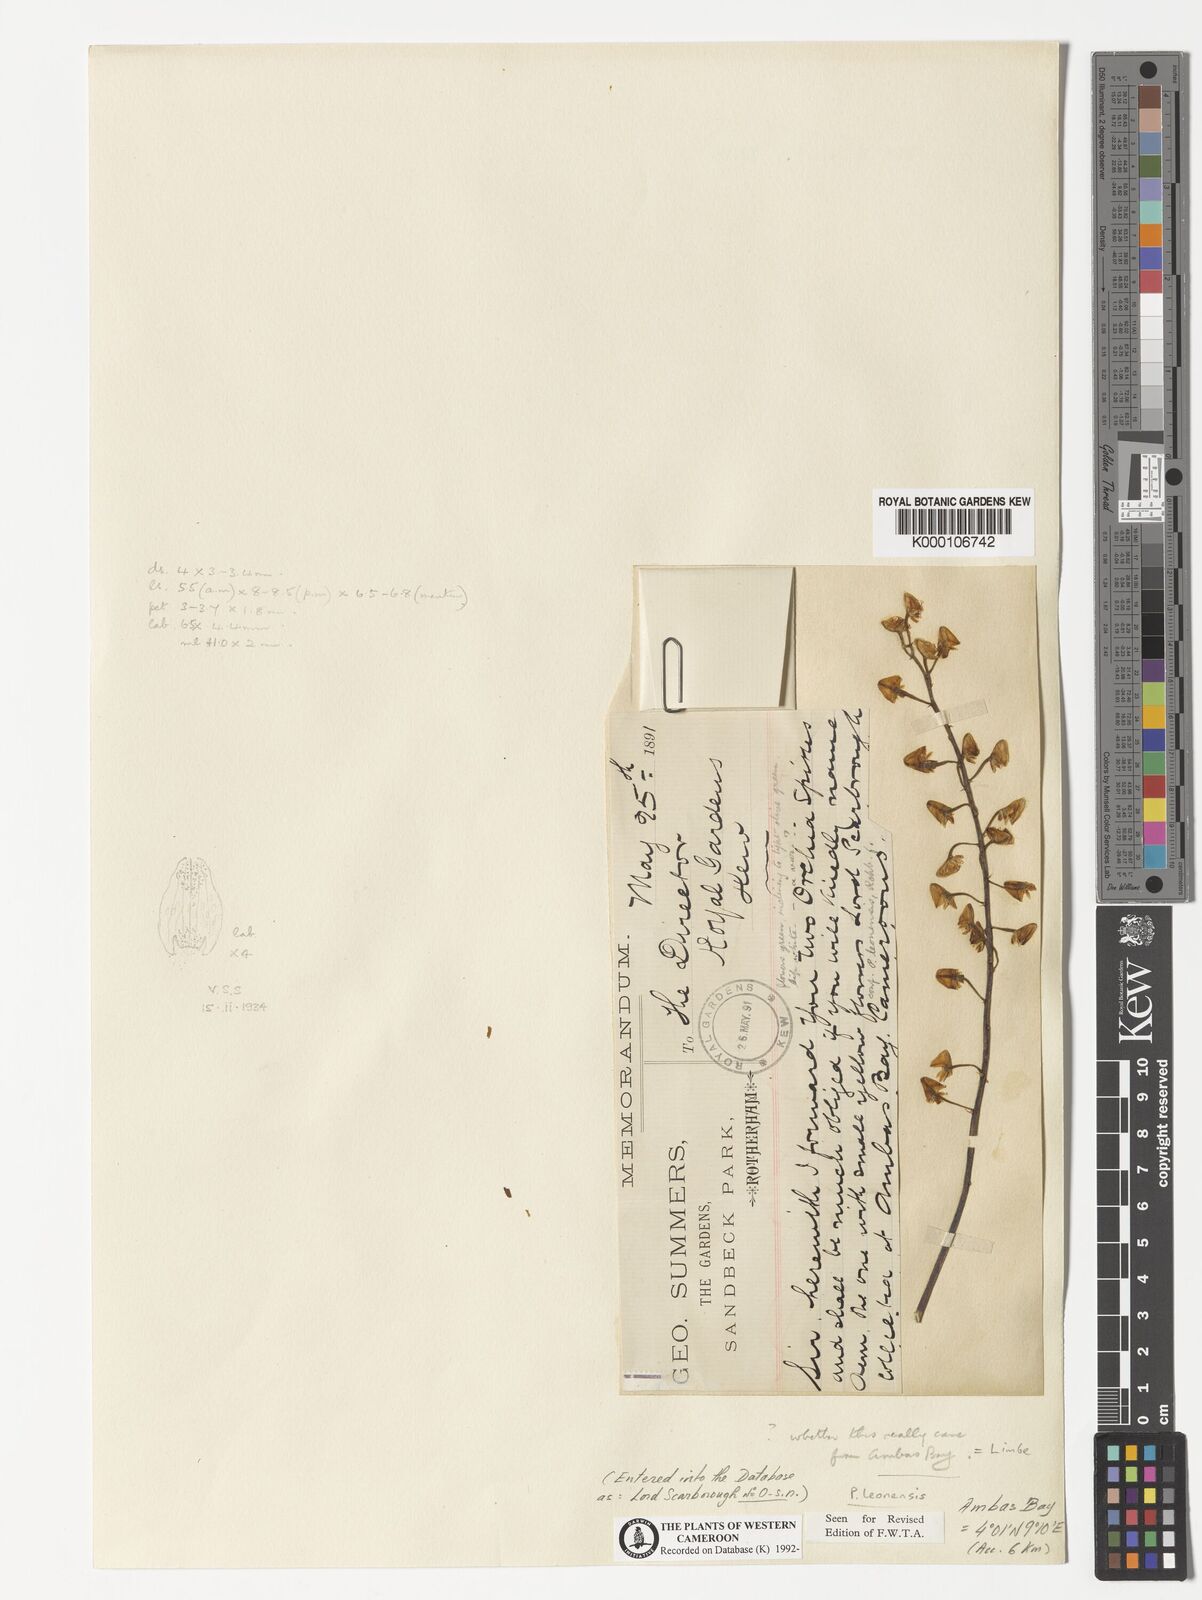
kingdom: Plantae
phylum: Tracheophyta
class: Liliopsida
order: Asparagales
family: Orchidaceae
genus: Polystachya
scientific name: Polystachya leonensis
